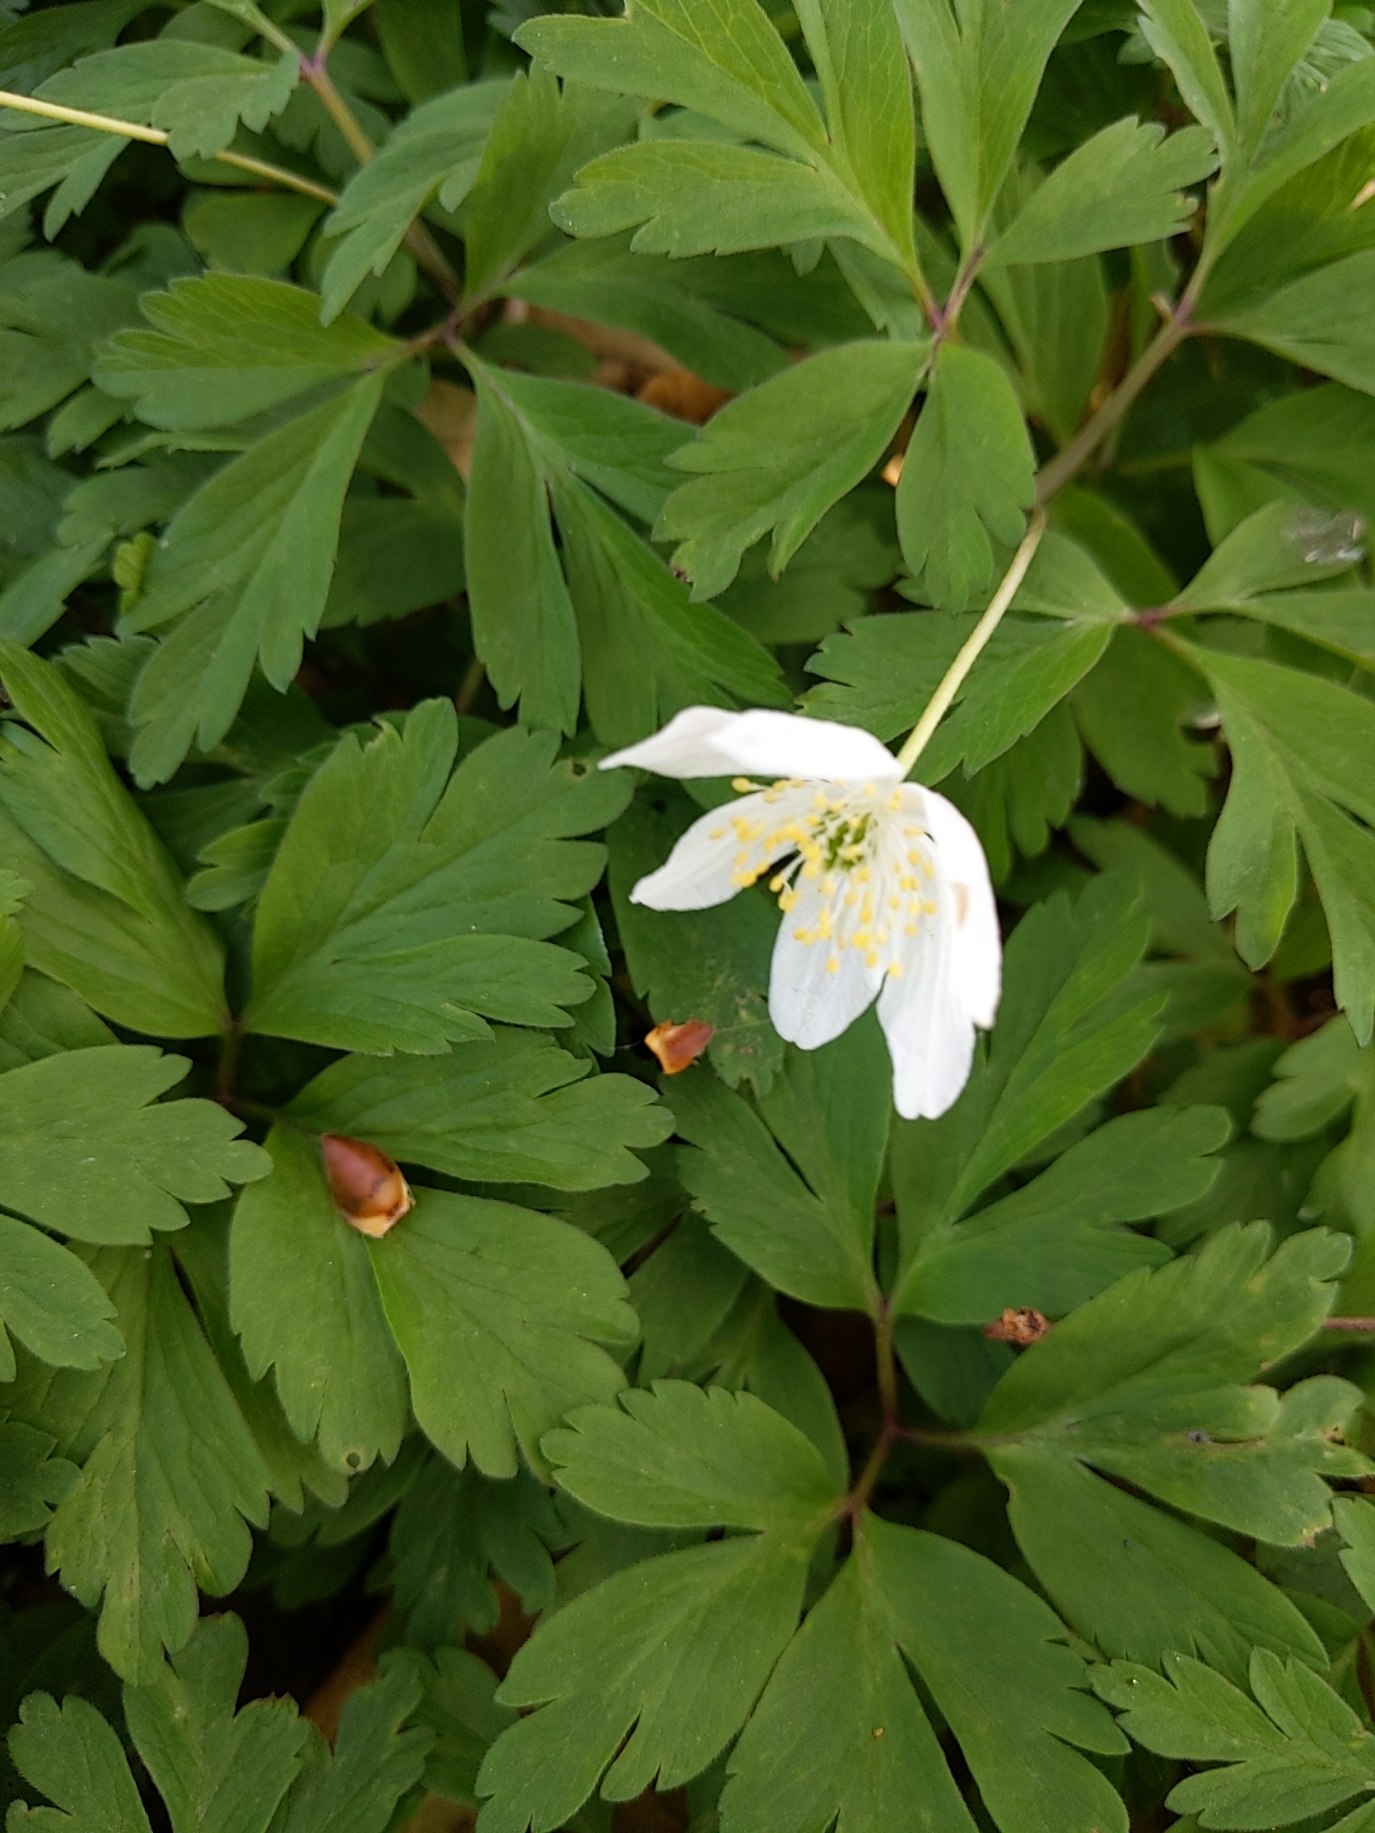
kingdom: Plantae
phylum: Tracheophyta
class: Magnoliopsida
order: Ranunculales
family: Ranunculaceae
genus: Anemone
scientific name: Anemone nemorosa
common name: Hvid anemone
